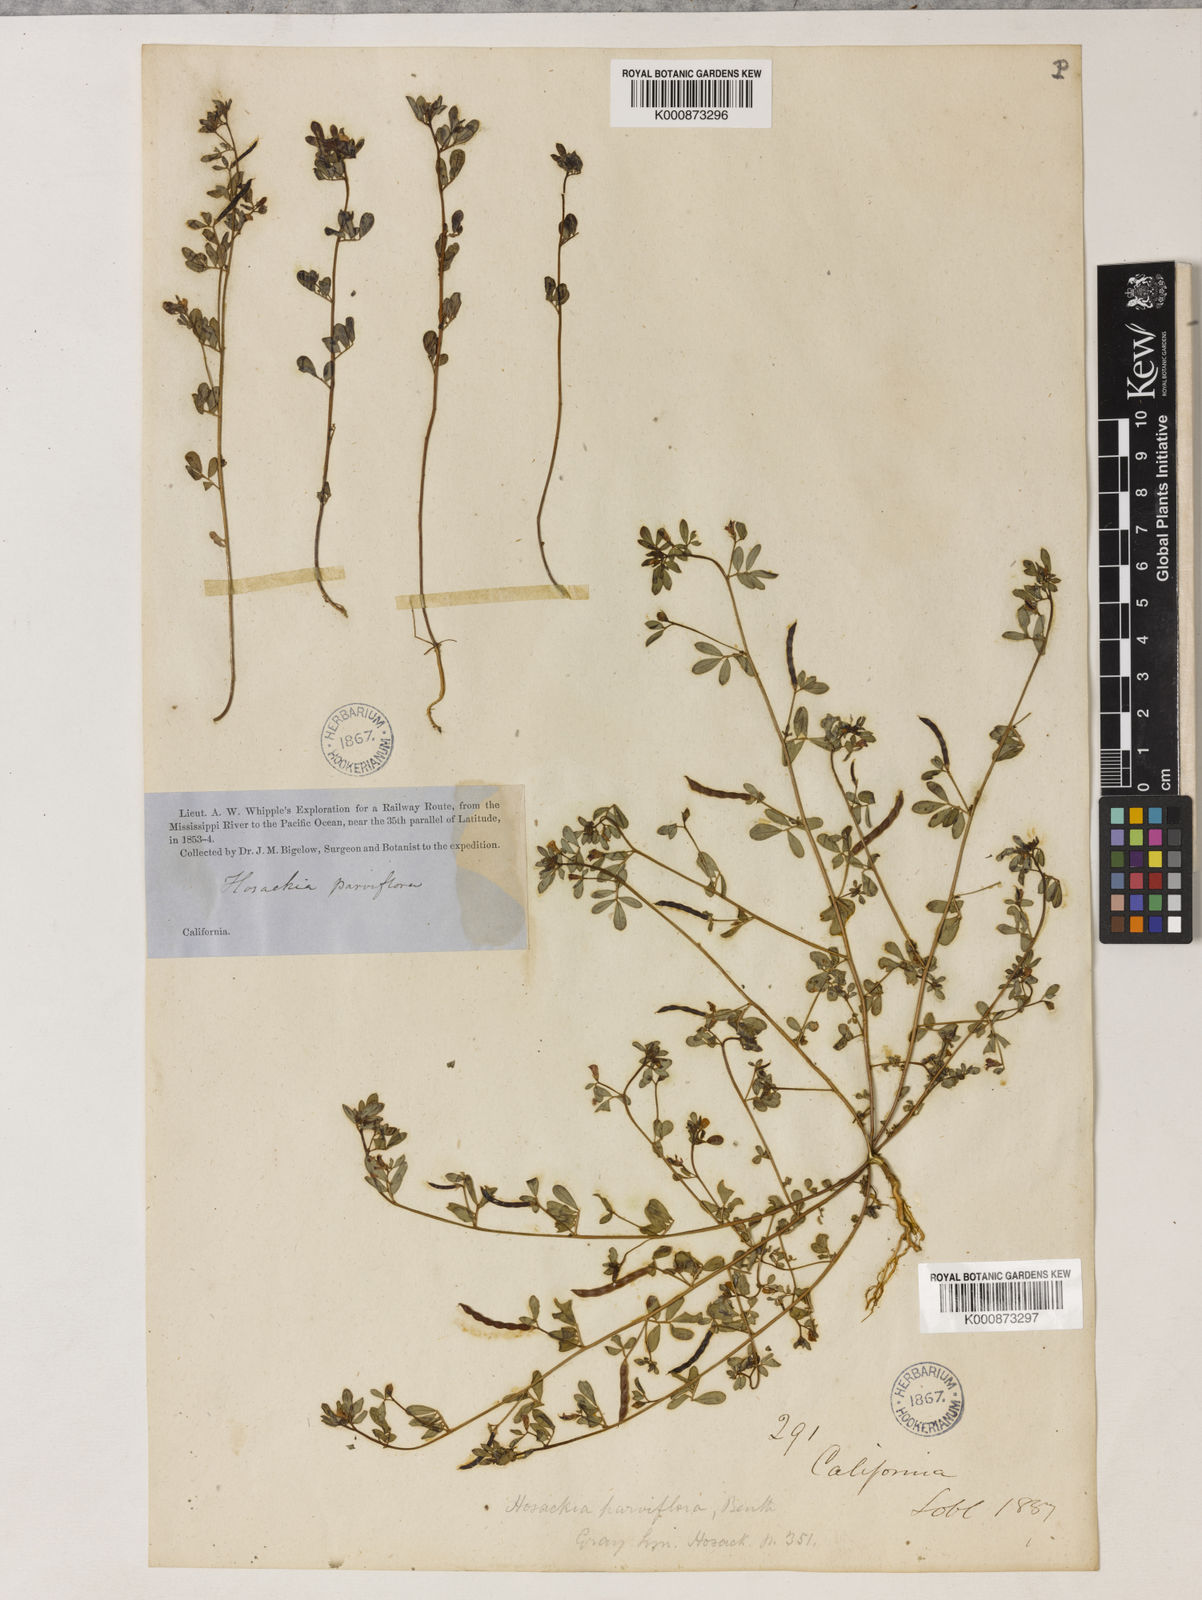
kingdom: Plantae
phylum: Tracheophyta
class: Magnoliopsida
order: Fabales
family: Fabaceae
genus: Acmispon
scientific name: Acmispon parviflorus
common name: Desert deer-vetch
